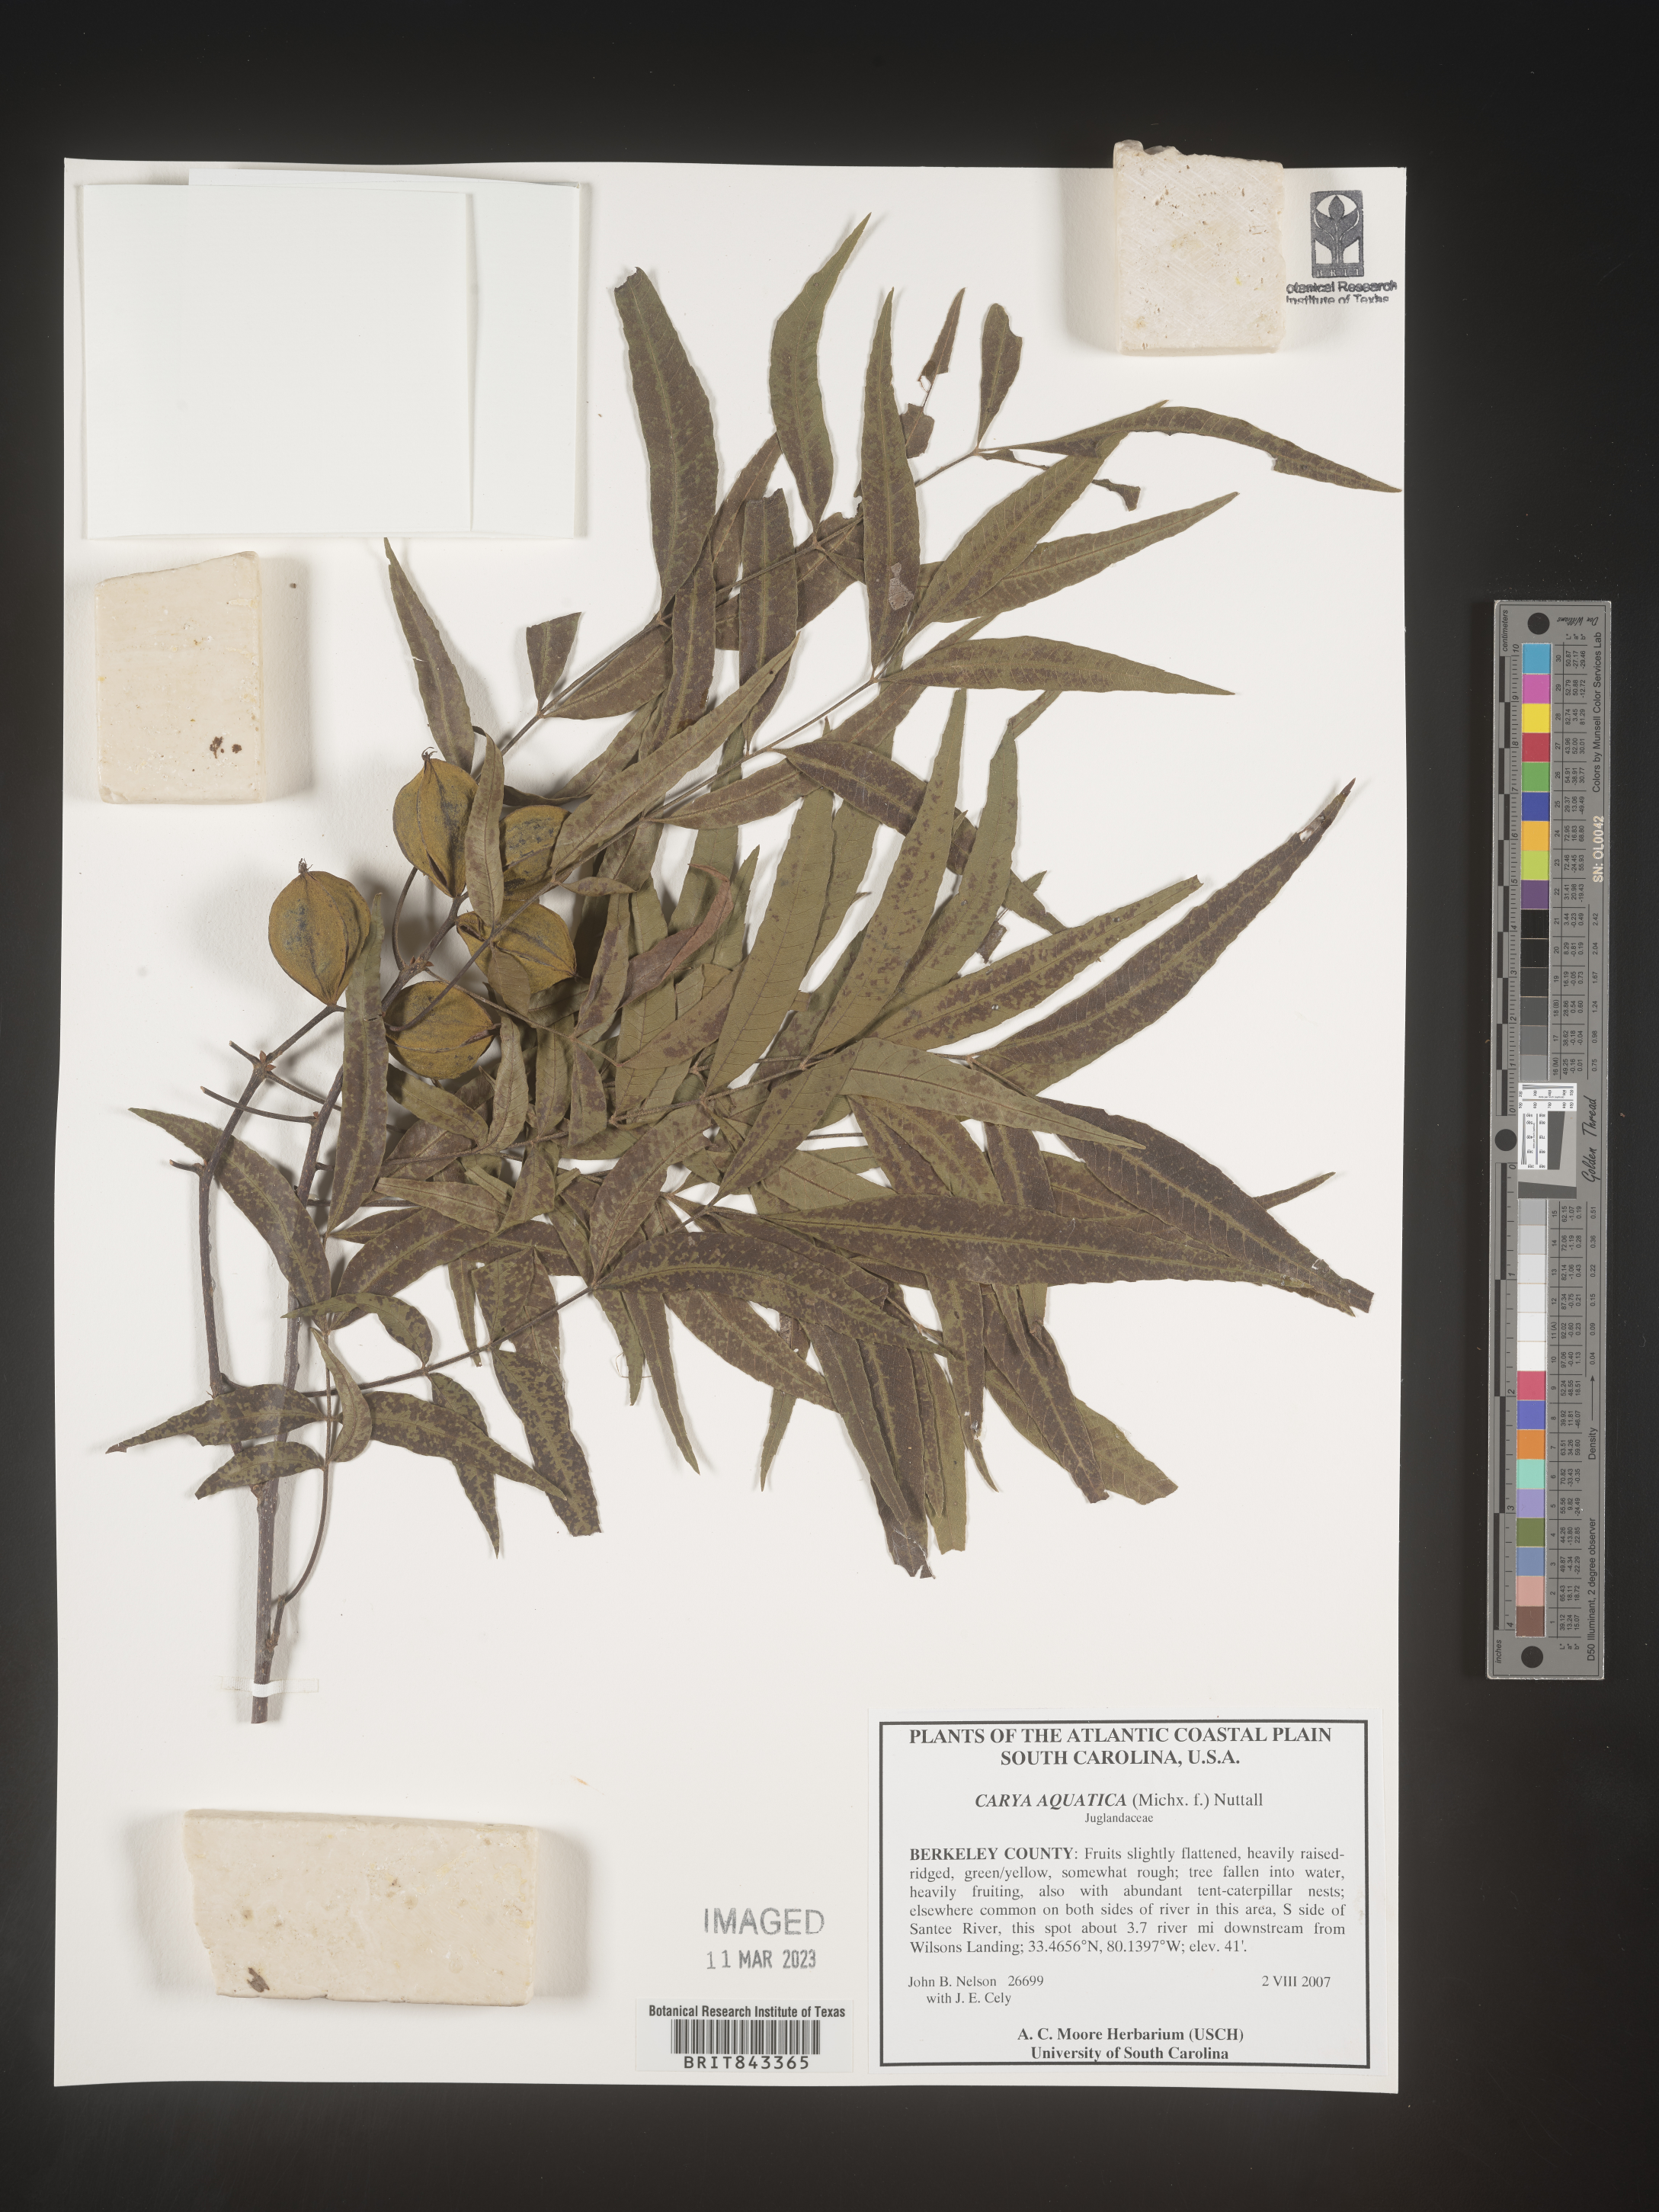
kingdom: Plantae
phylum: Tracheophyta
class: Magnoliopsida
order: Fagales
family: Juglandaceae
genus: Carya
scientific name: Carya aquatica
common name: Water hickory
